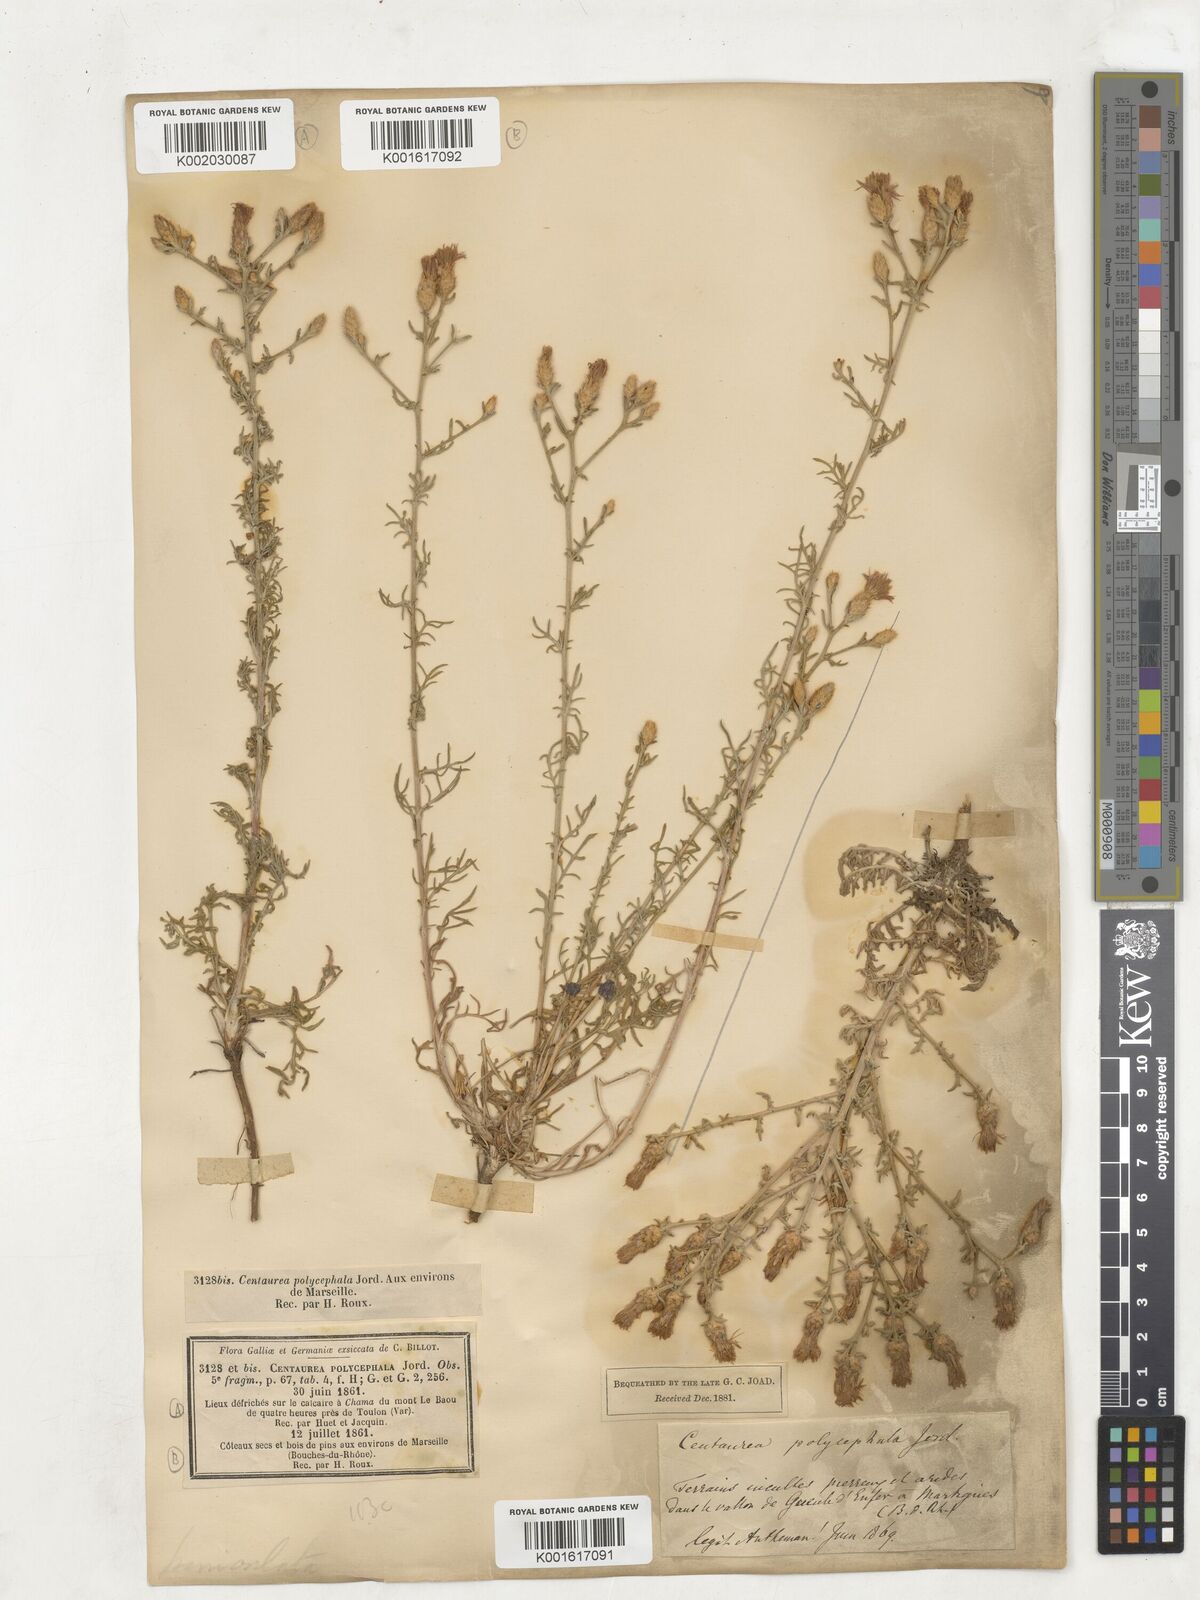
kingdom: Plantae
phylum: Tracheophyta
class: Magnoliopsida
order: Asterales
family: Asteraceae
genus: Centaurea
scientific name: Centaurea paniculata
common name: Jersey knapweed
